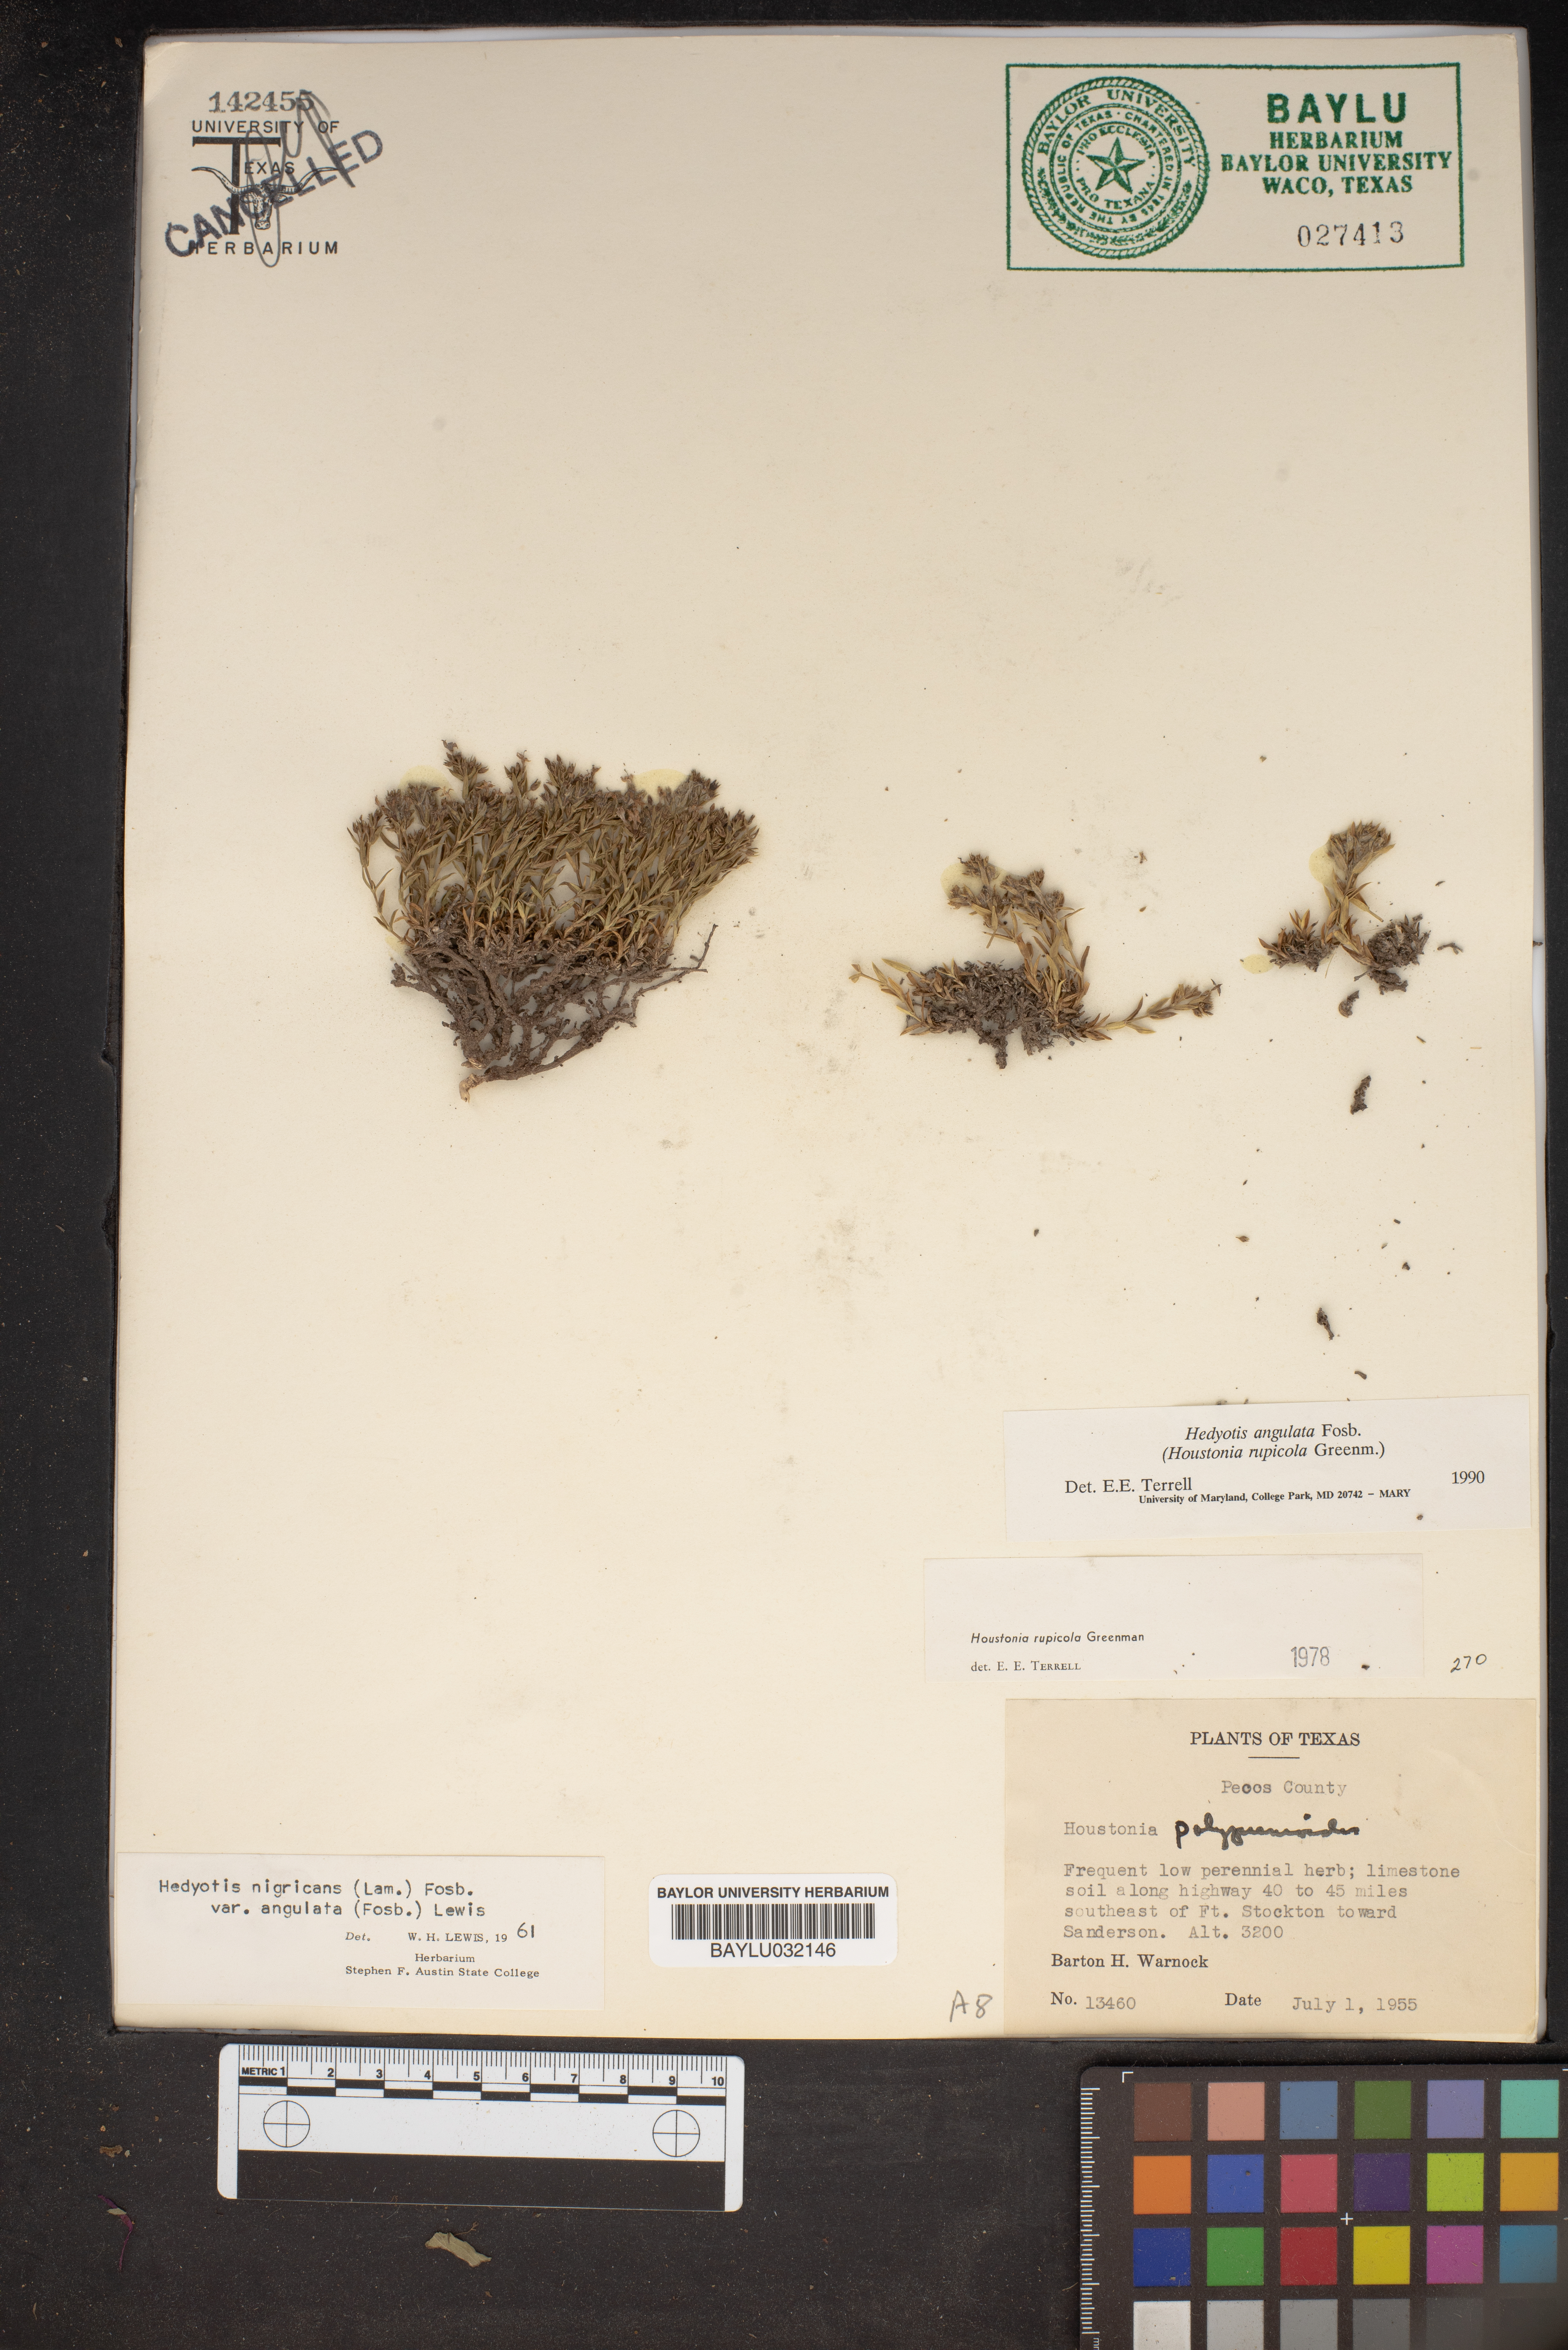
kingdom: Plantae
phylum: Tracheophyta
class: Magnoliopsida
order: Gentianales
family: Rubiaceae
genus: Stenaria
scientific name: Stenaria rupicola
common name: Smallflower starviolet
